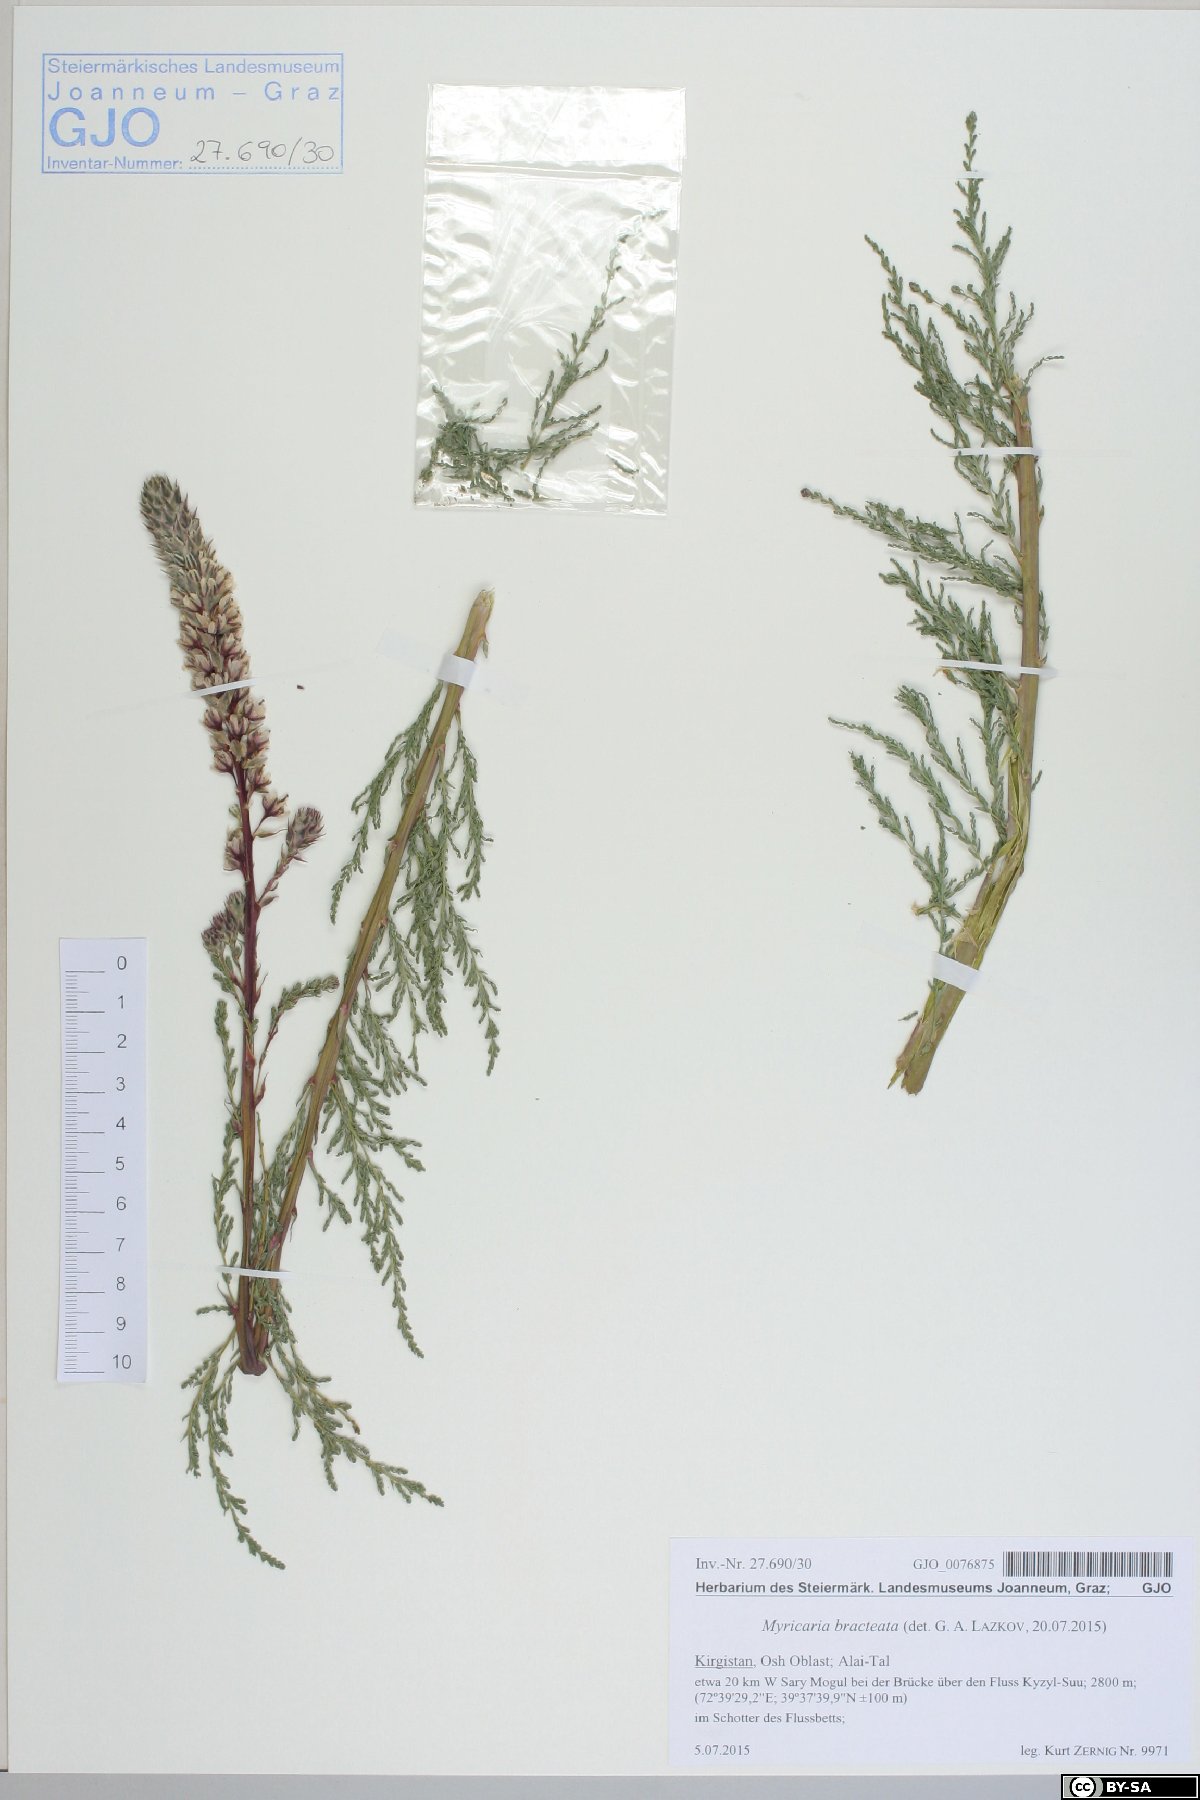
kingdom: Plantae
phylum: Tracheophyta
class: Magnoliopsida
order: Caryophyllales
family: Tamaricaceae
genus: Myricaria
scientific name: Myricaria bracteata
